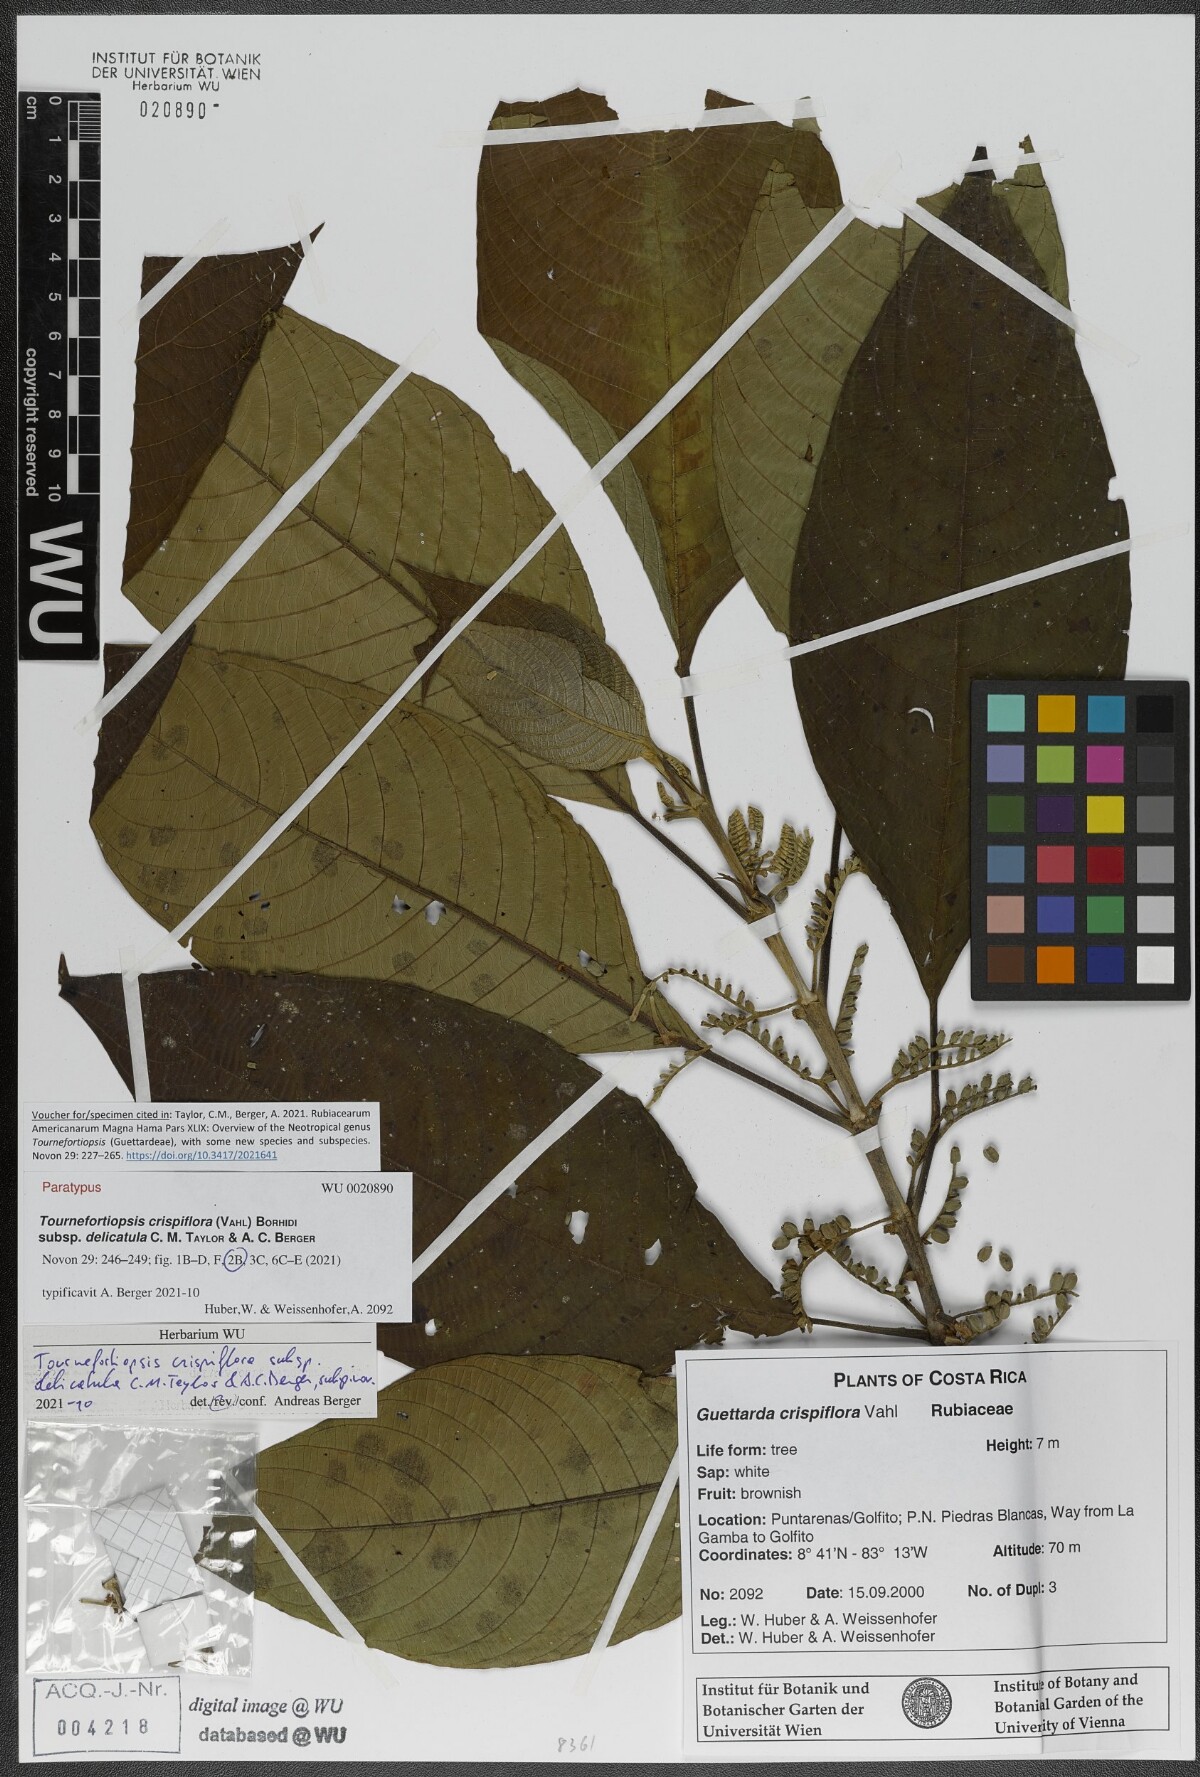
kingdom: Plantae
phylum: Tracheophyta
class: Magnoliopsida
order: Gentianales
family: Rubiaceae
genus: Tournefortiopsis
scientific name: Tournefortiopsis crispiflora
